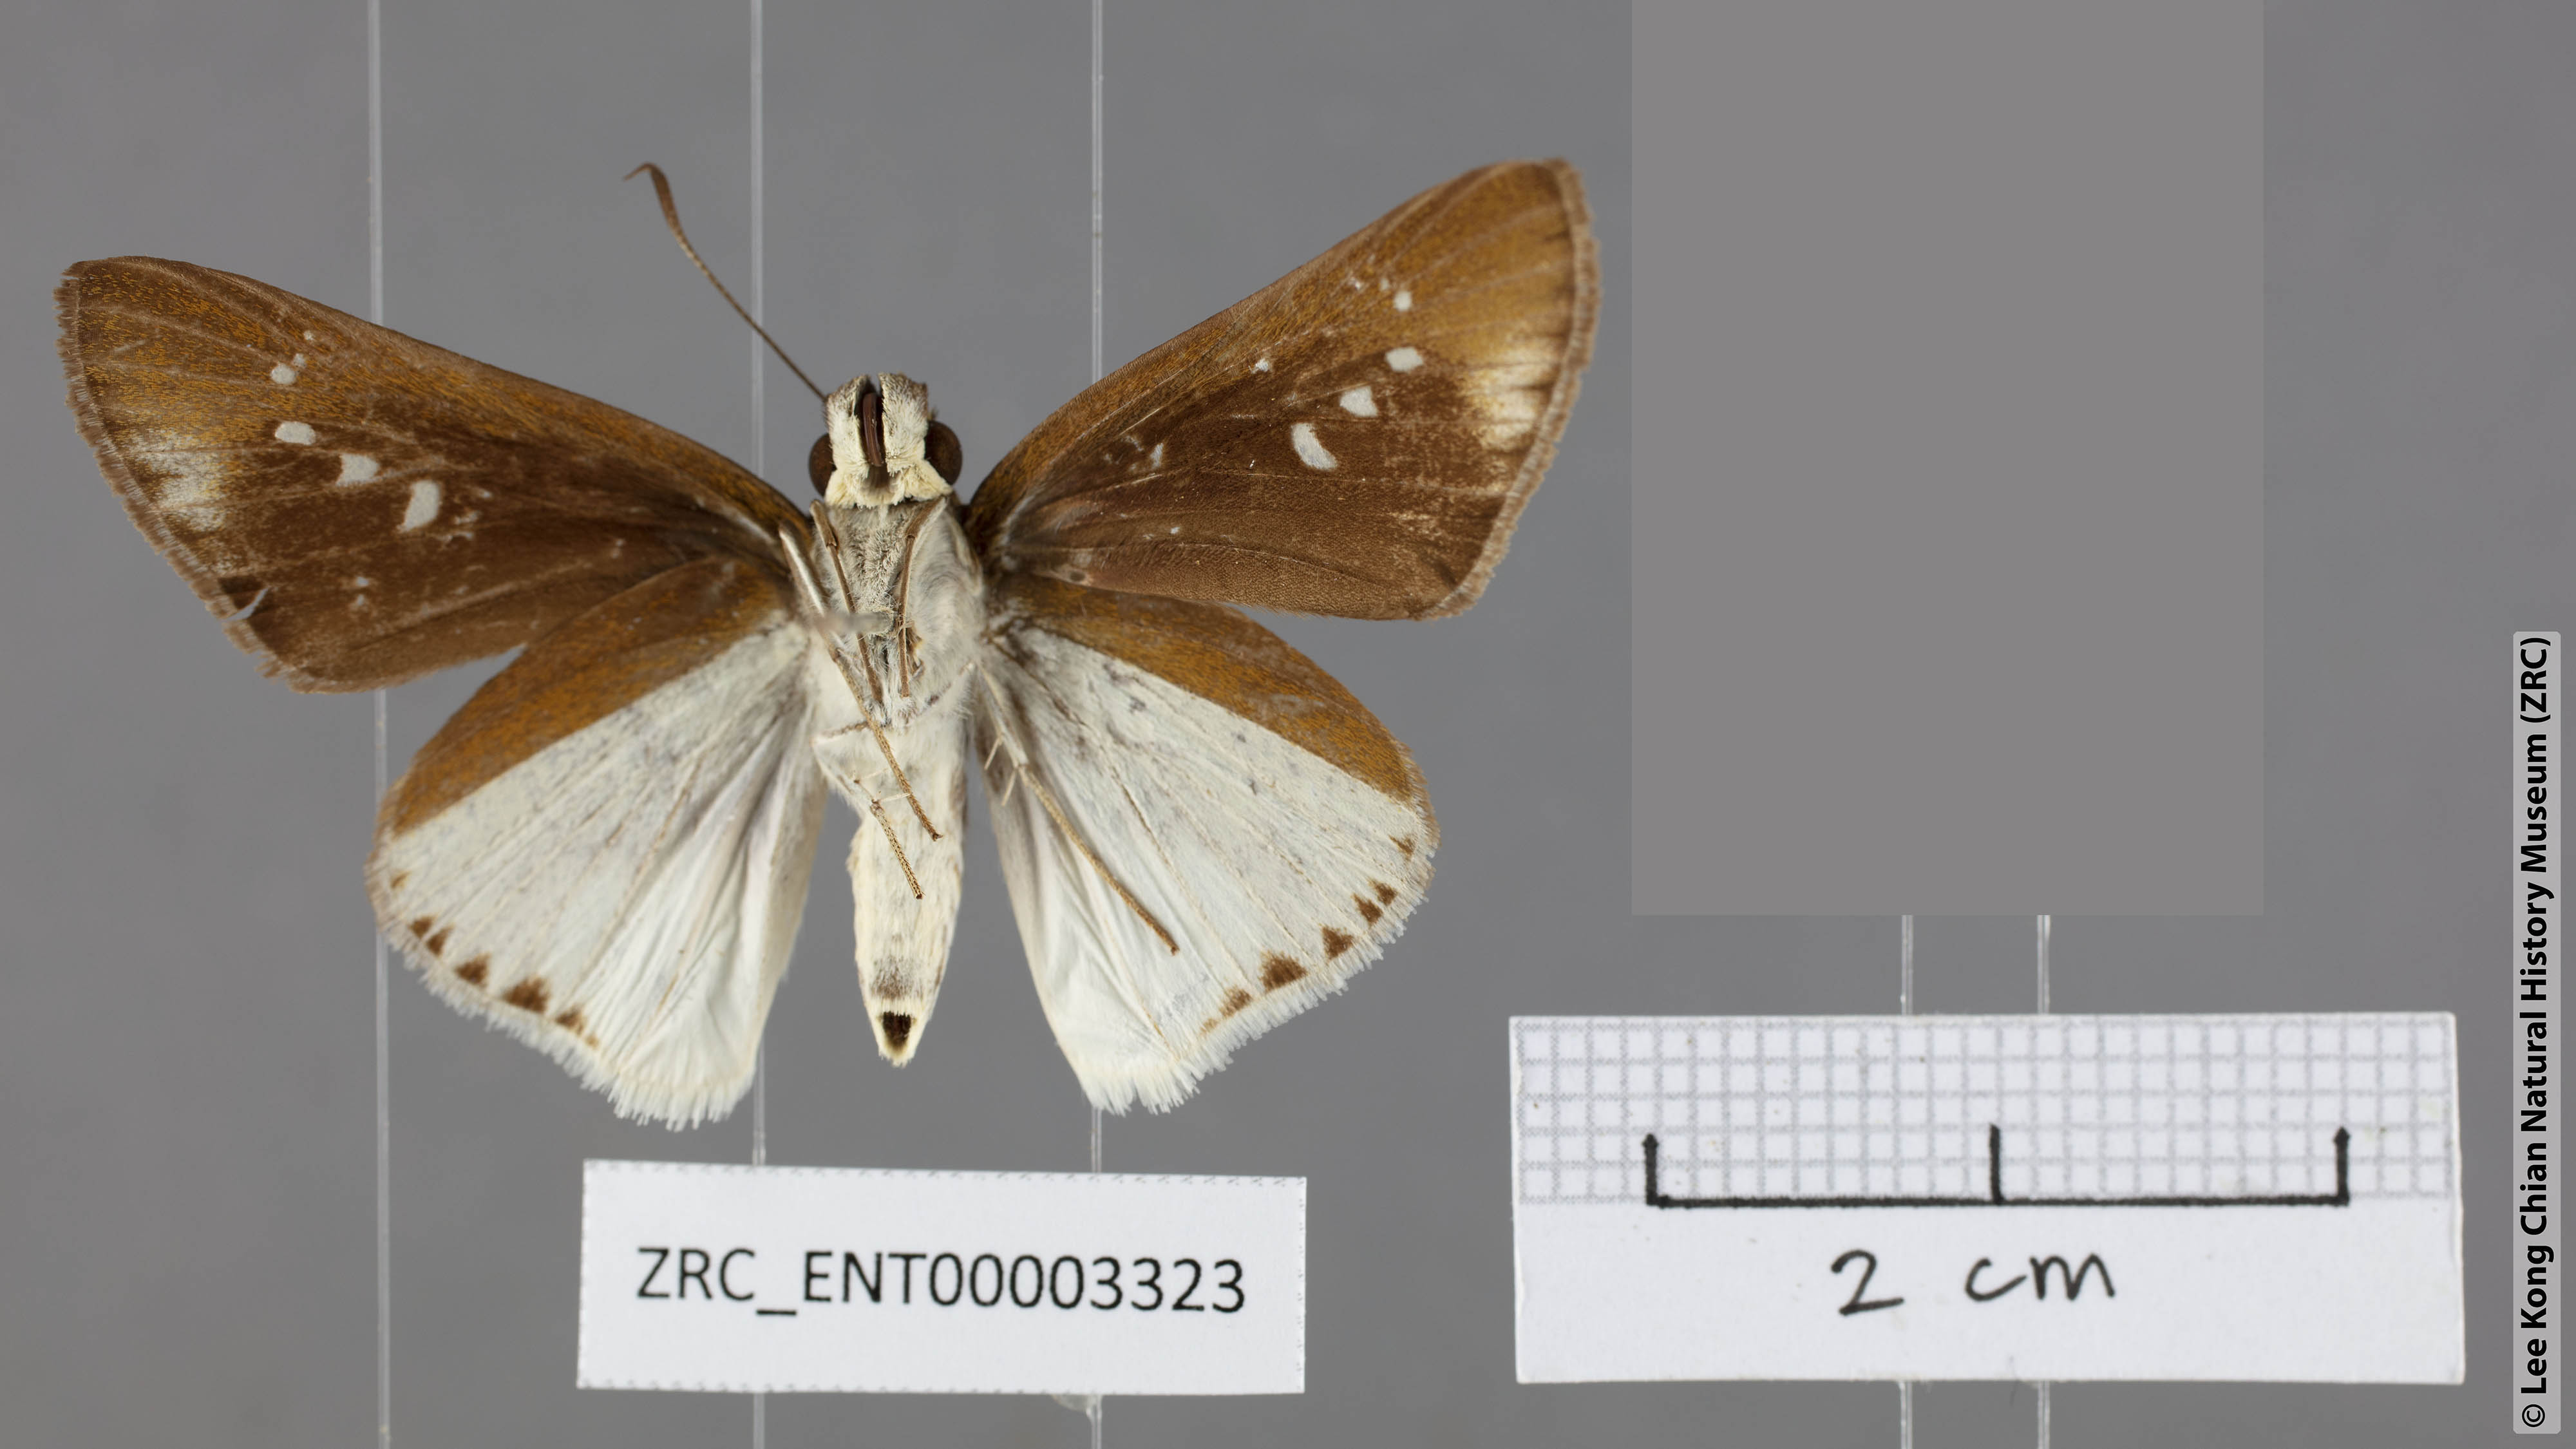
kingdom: Animalia
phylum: Arthropoda
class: Insecta
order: Lepidoptera
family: Hesperiidae
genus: Iton
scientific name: Iton semamora
